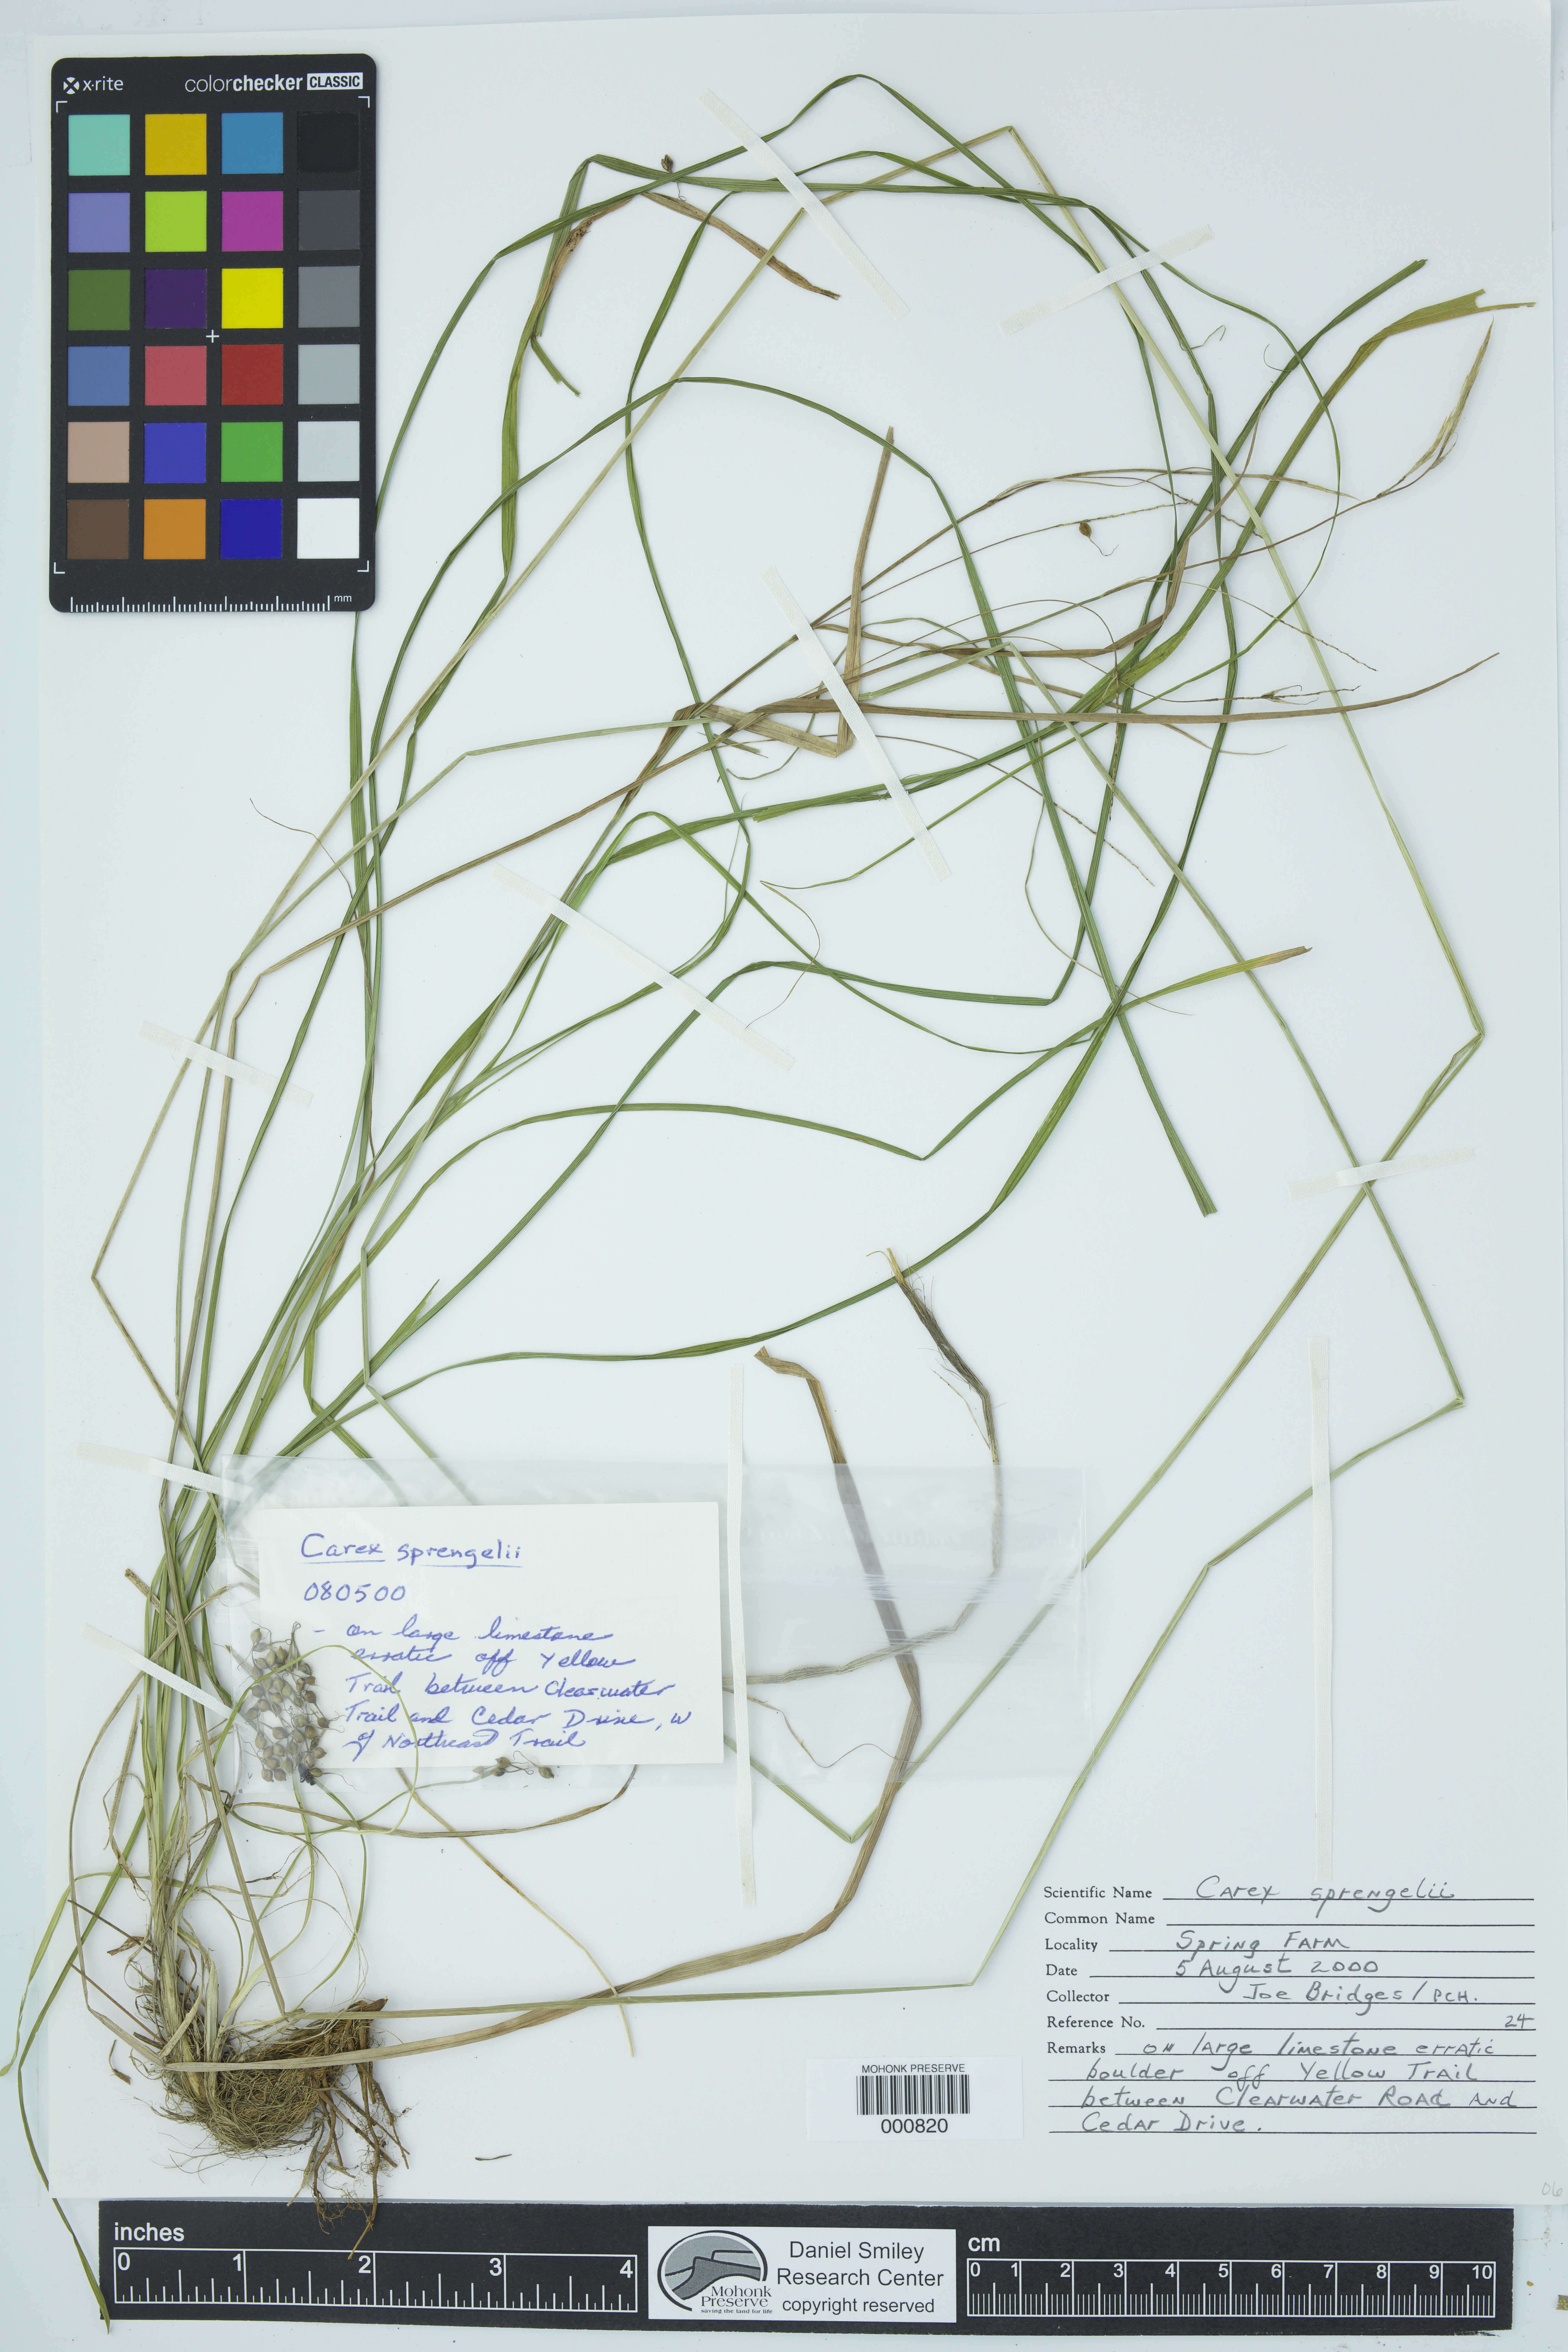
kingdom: Plantae
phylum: Tracheophyta
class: Liliopsida
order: Poales
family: Cyperaceae
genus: Carex
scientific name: Carex sprengelii
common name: Long-beaked sedge
